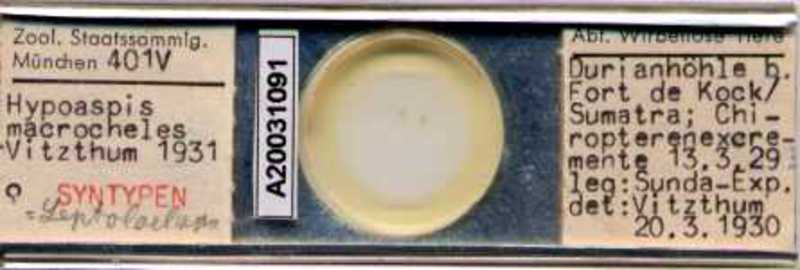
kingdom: Animalia
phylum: Arthropoda
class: Arachnida
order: Mesostigmata
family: Laelapidae
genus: Hypoaspis
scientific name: Hypoaspis
